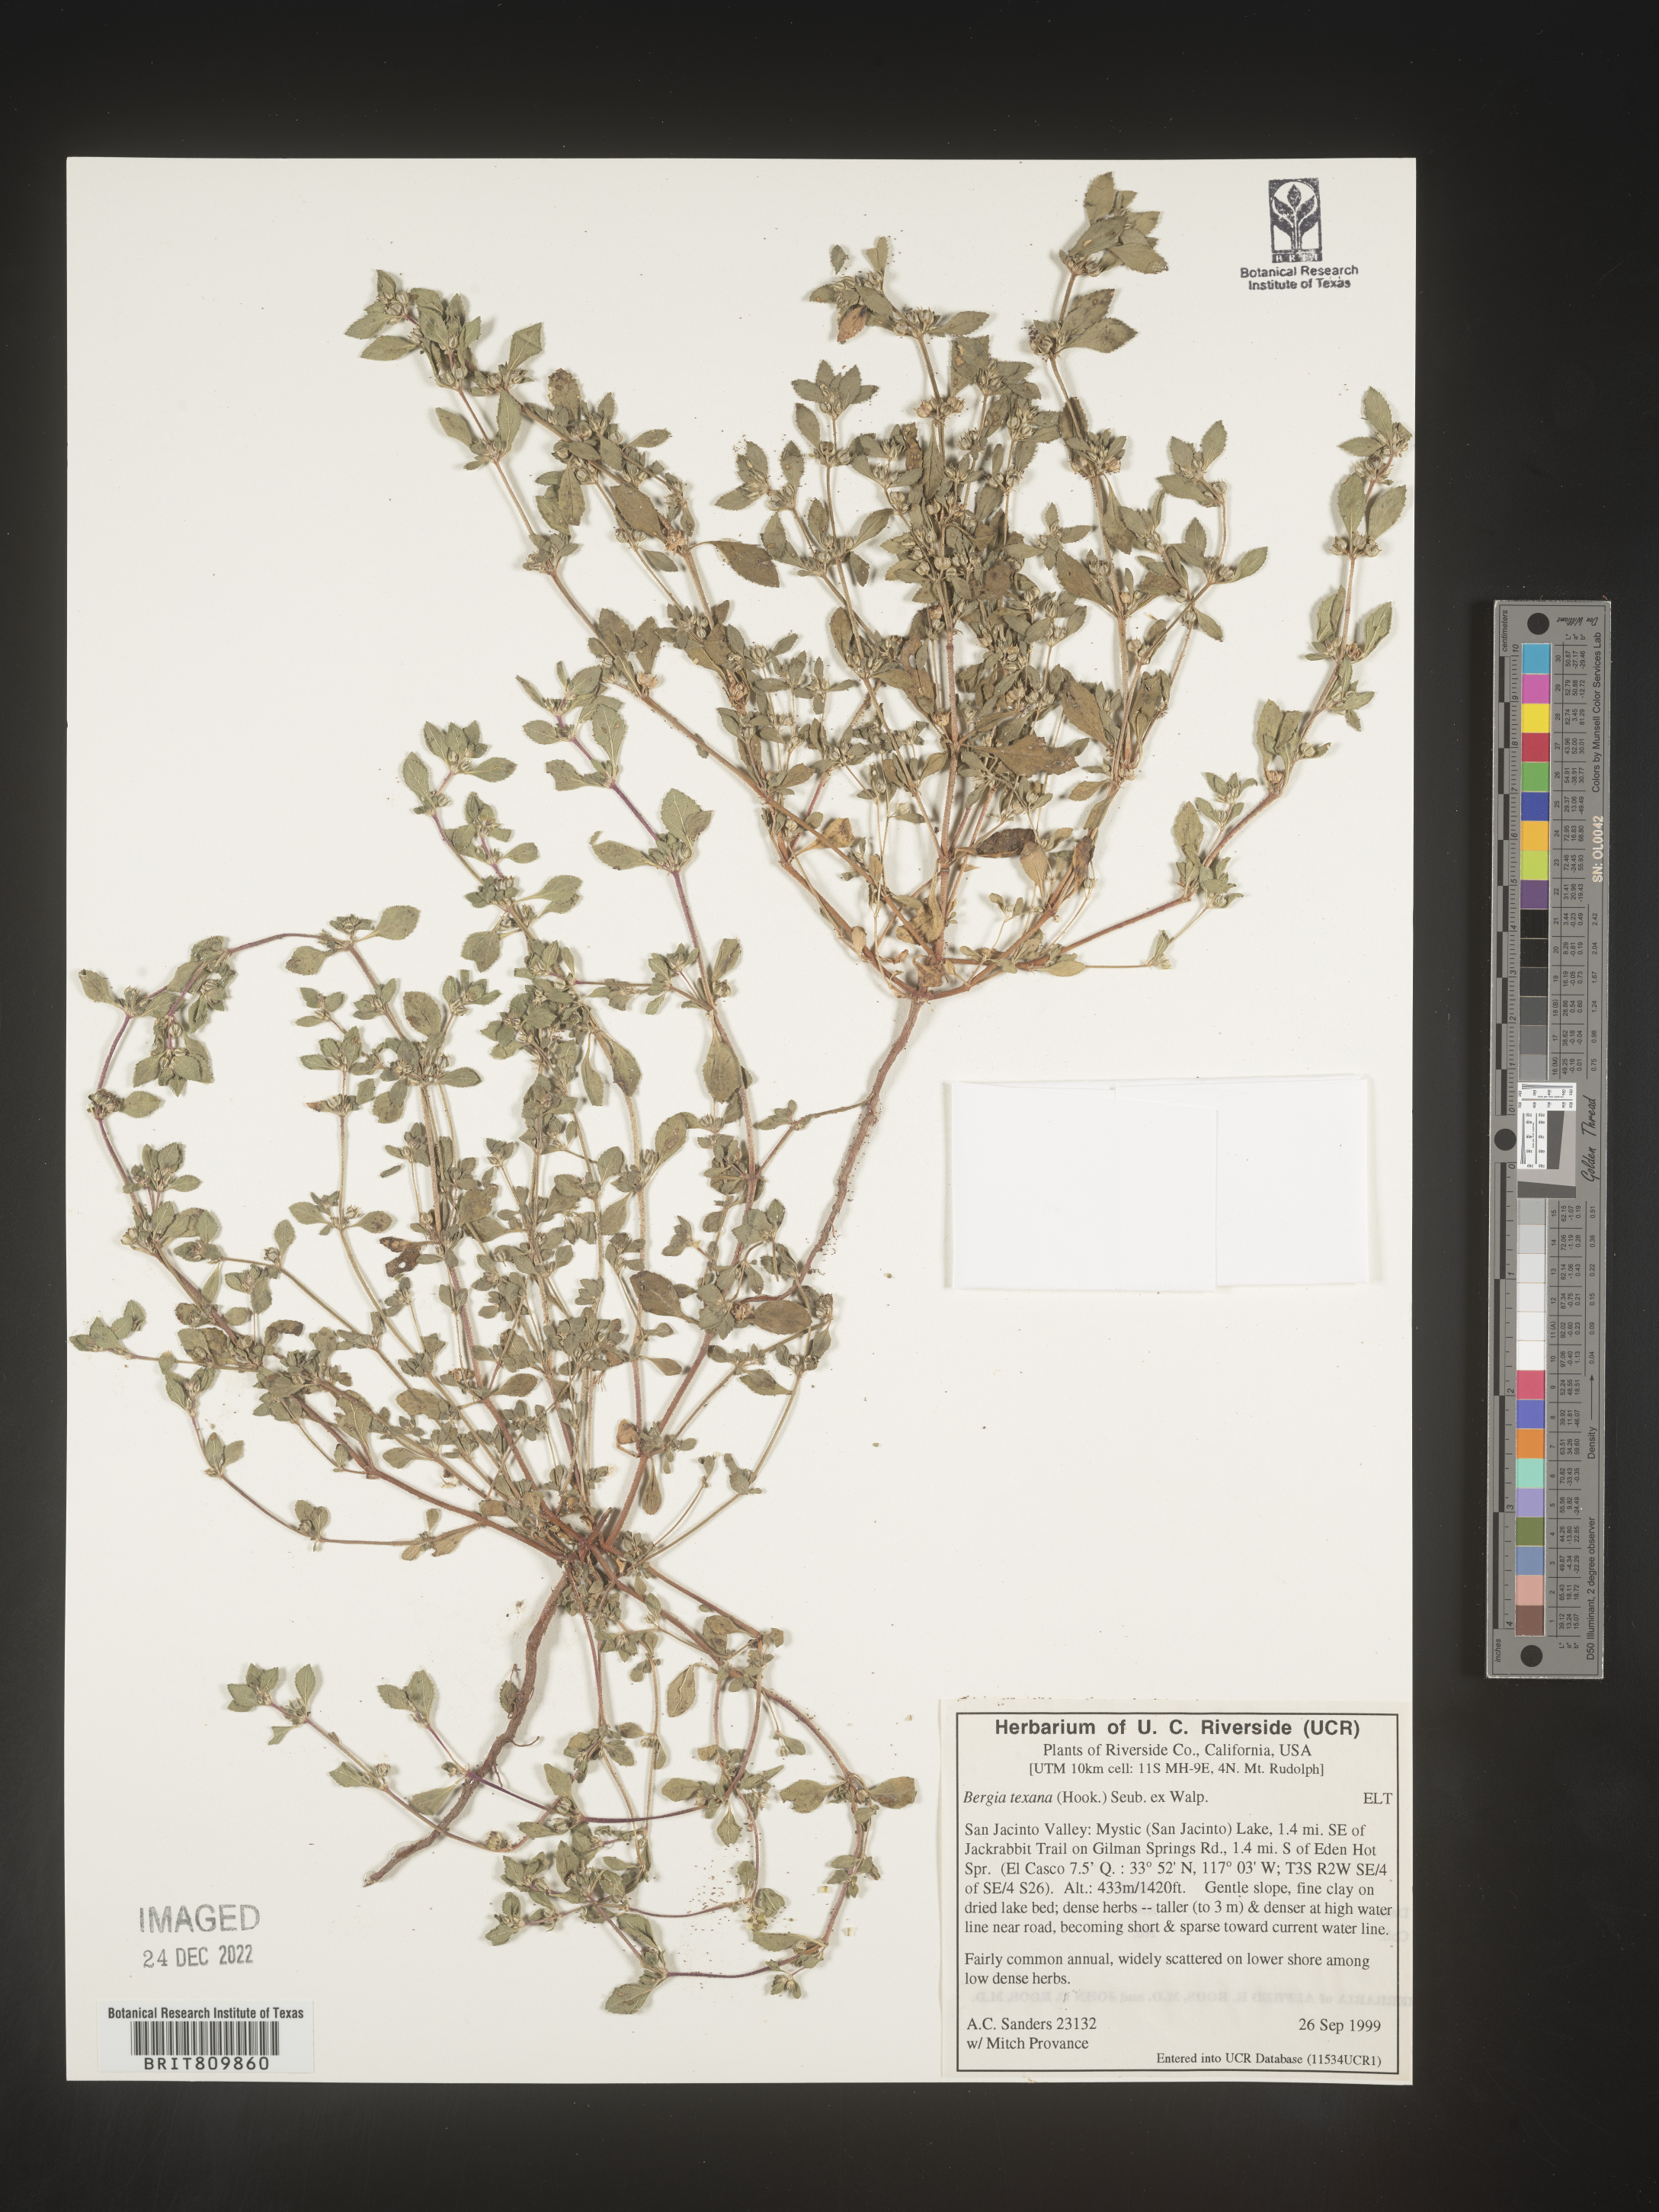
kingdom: Plantae
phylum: Tracheophyta
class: Magnoliopsida
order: Malpighiales
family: Elatinaceae
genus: Bergia
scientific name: Bergia
